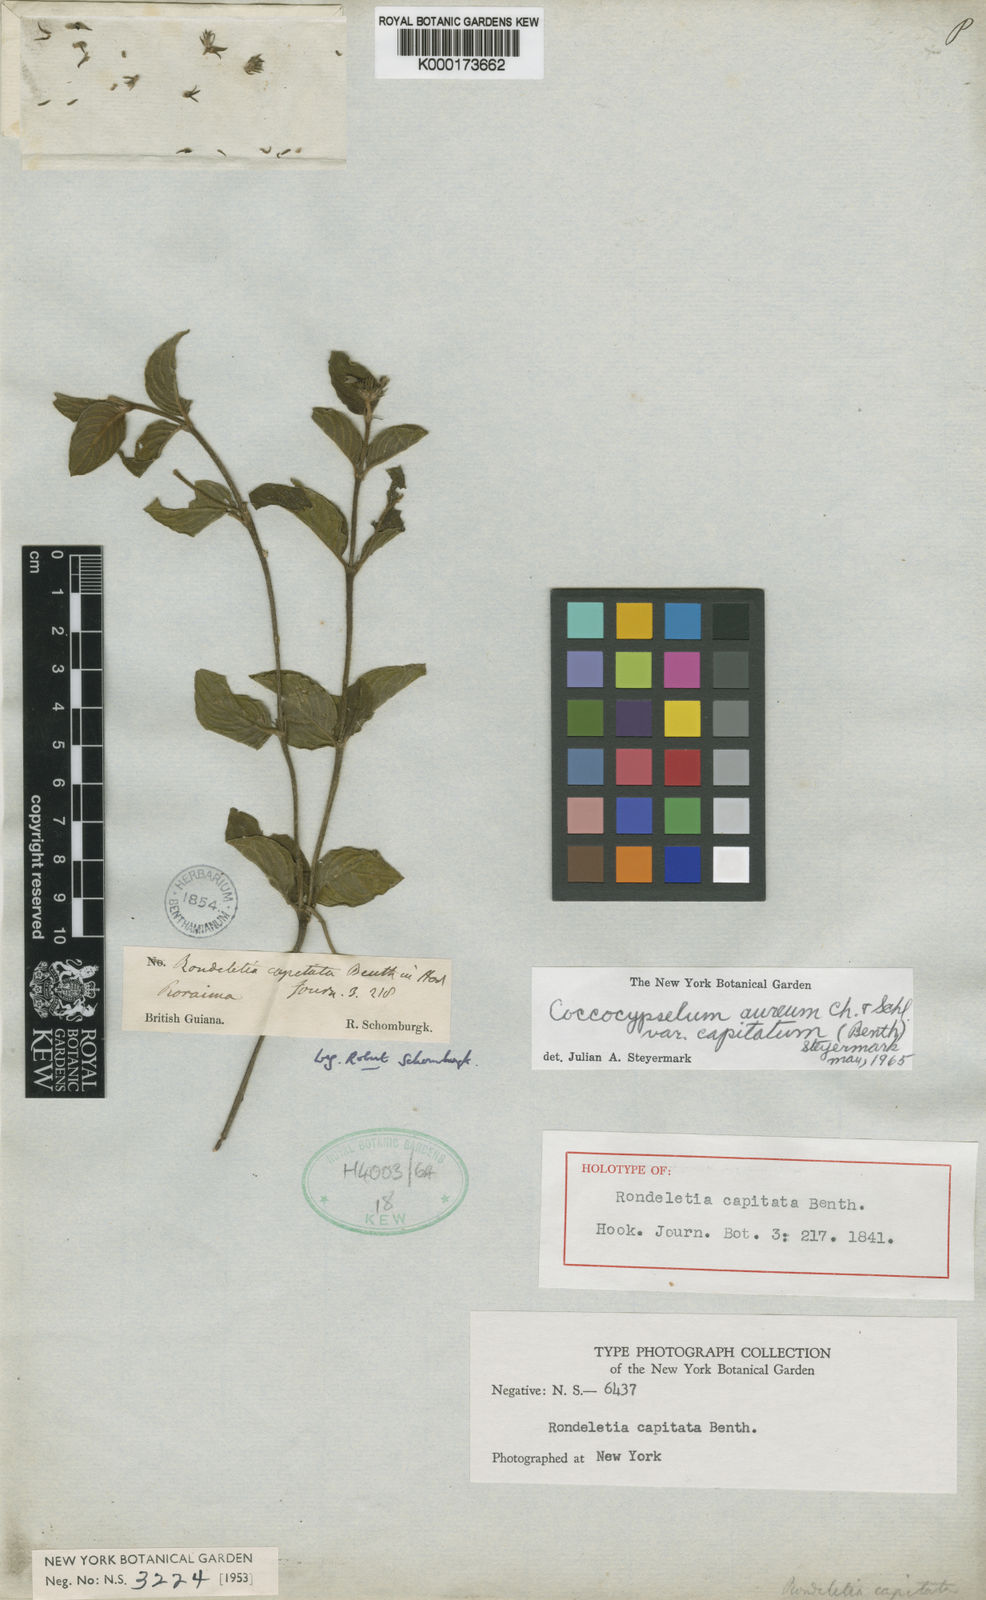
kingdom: Plantae
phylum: Tracheophyta
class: Magnoliopsida
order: Gentianales
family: Rubiaceae
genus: Coccocypselum
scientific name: Coccocypselum aureum
